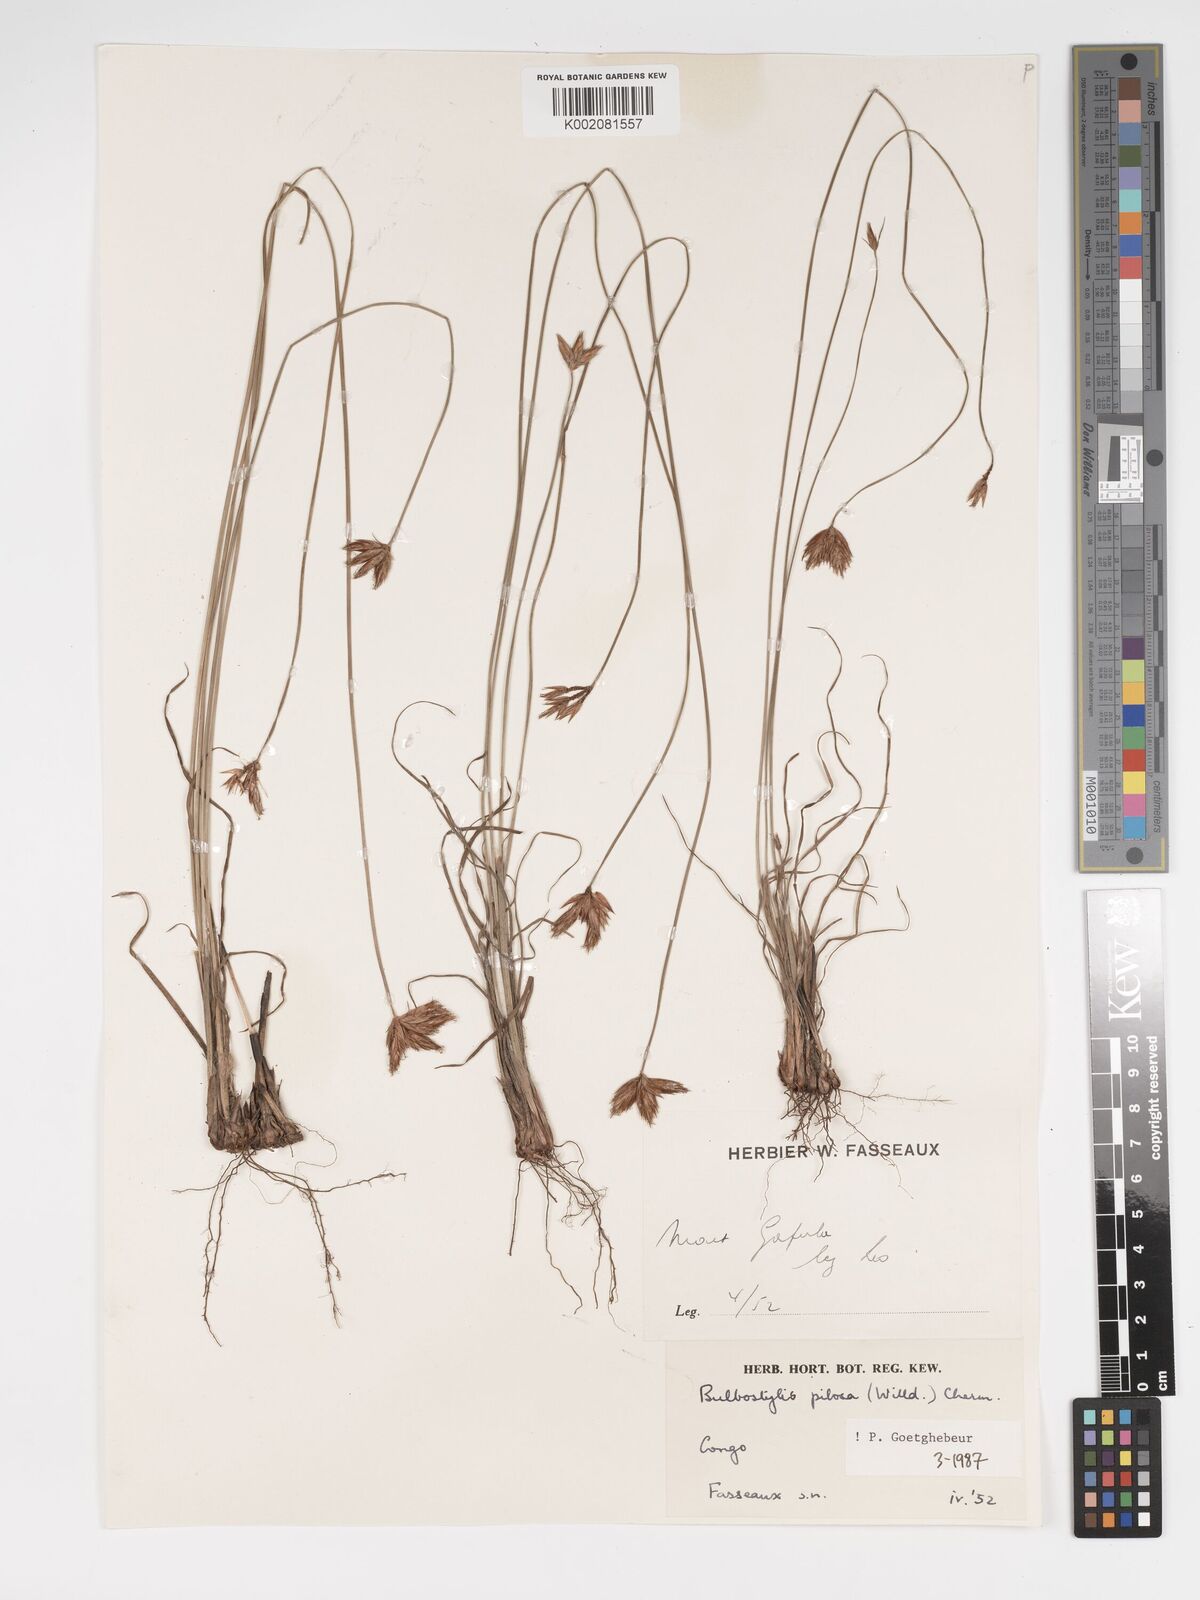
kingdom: Plantae
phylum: Tracheophyta
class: Liliopsida
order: Poales
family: Cyperaceae
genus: Bulbostylis
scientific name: Bulbostylis pilosa
